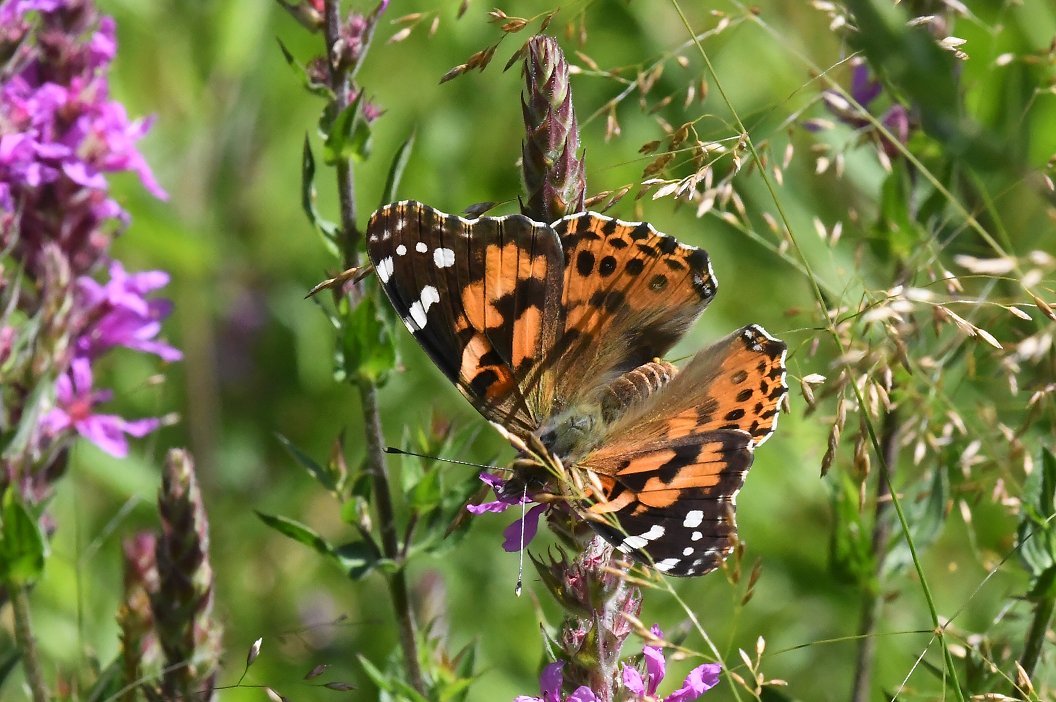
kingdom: Animalia
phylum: Arthropoda
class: Insecta
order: Lepidoptera
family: Nymphalidae
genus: Vanessa
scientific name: Vanessa cardui
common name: Painted Lady
